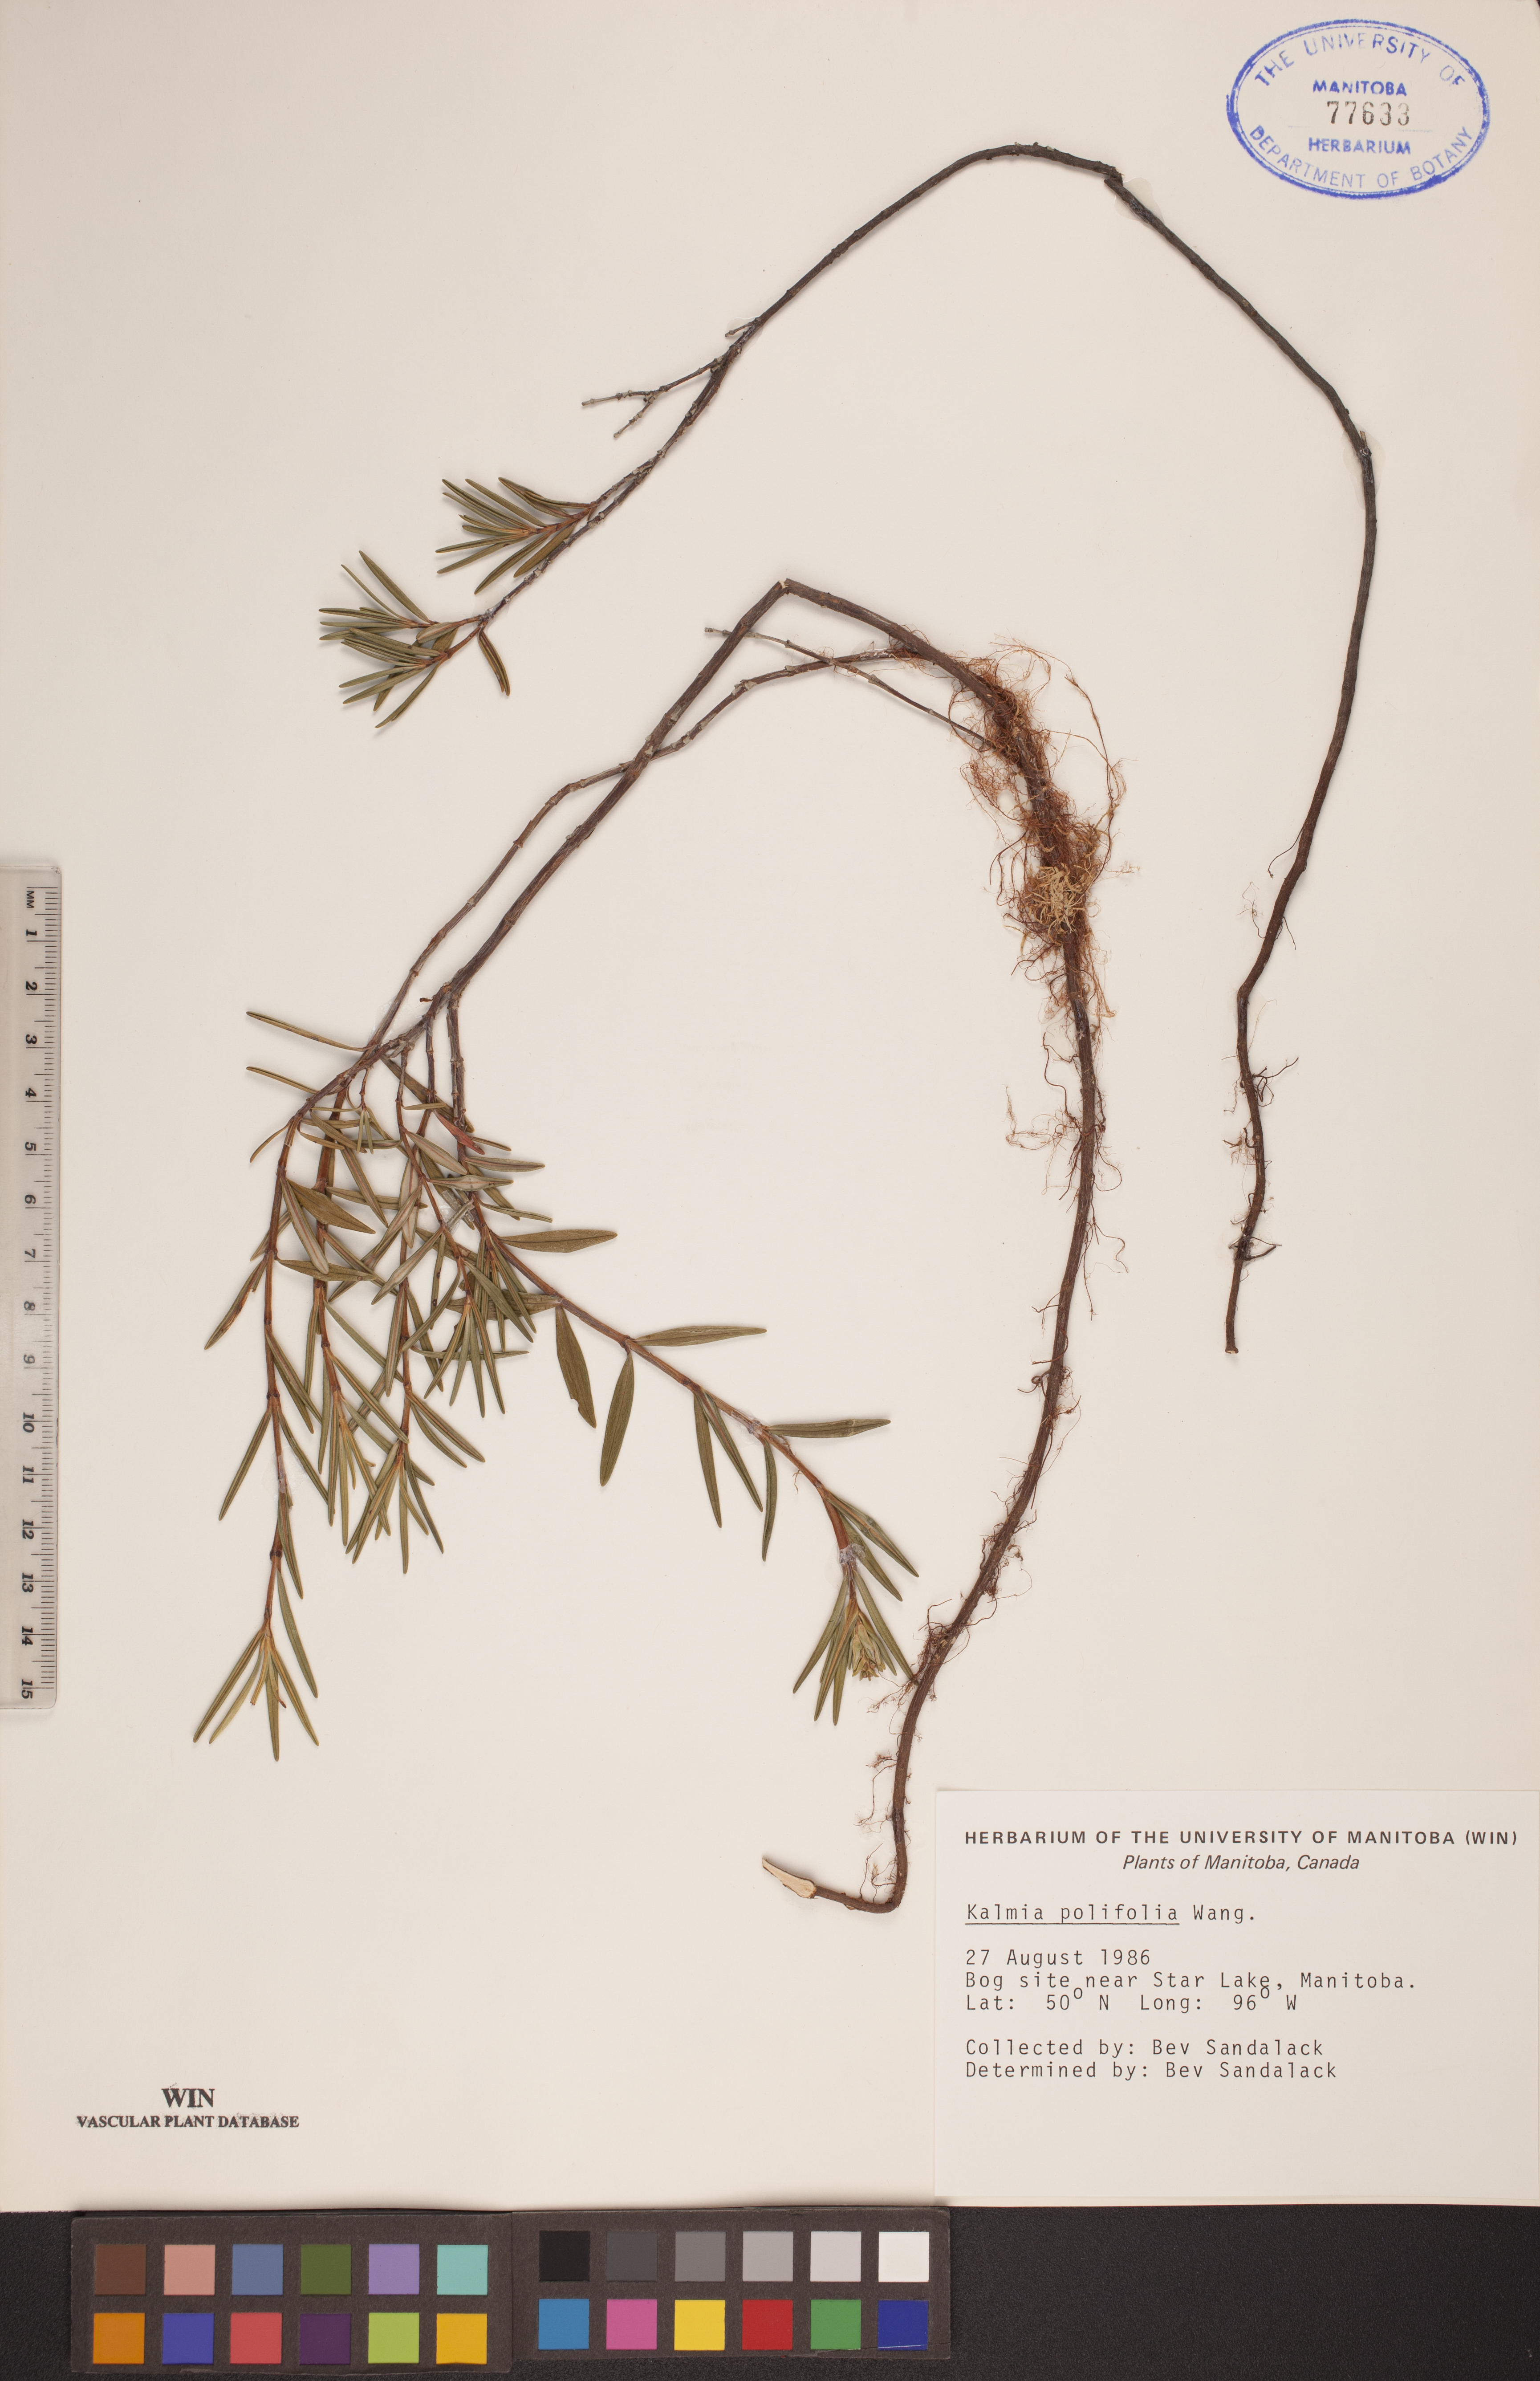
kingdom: Plantae
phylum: Tracheophyta
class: Magnoliopsida
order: Ericales
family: Ericaceae
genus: Kalmia
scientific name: Kalmia polifolia
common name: Bog-laurel
